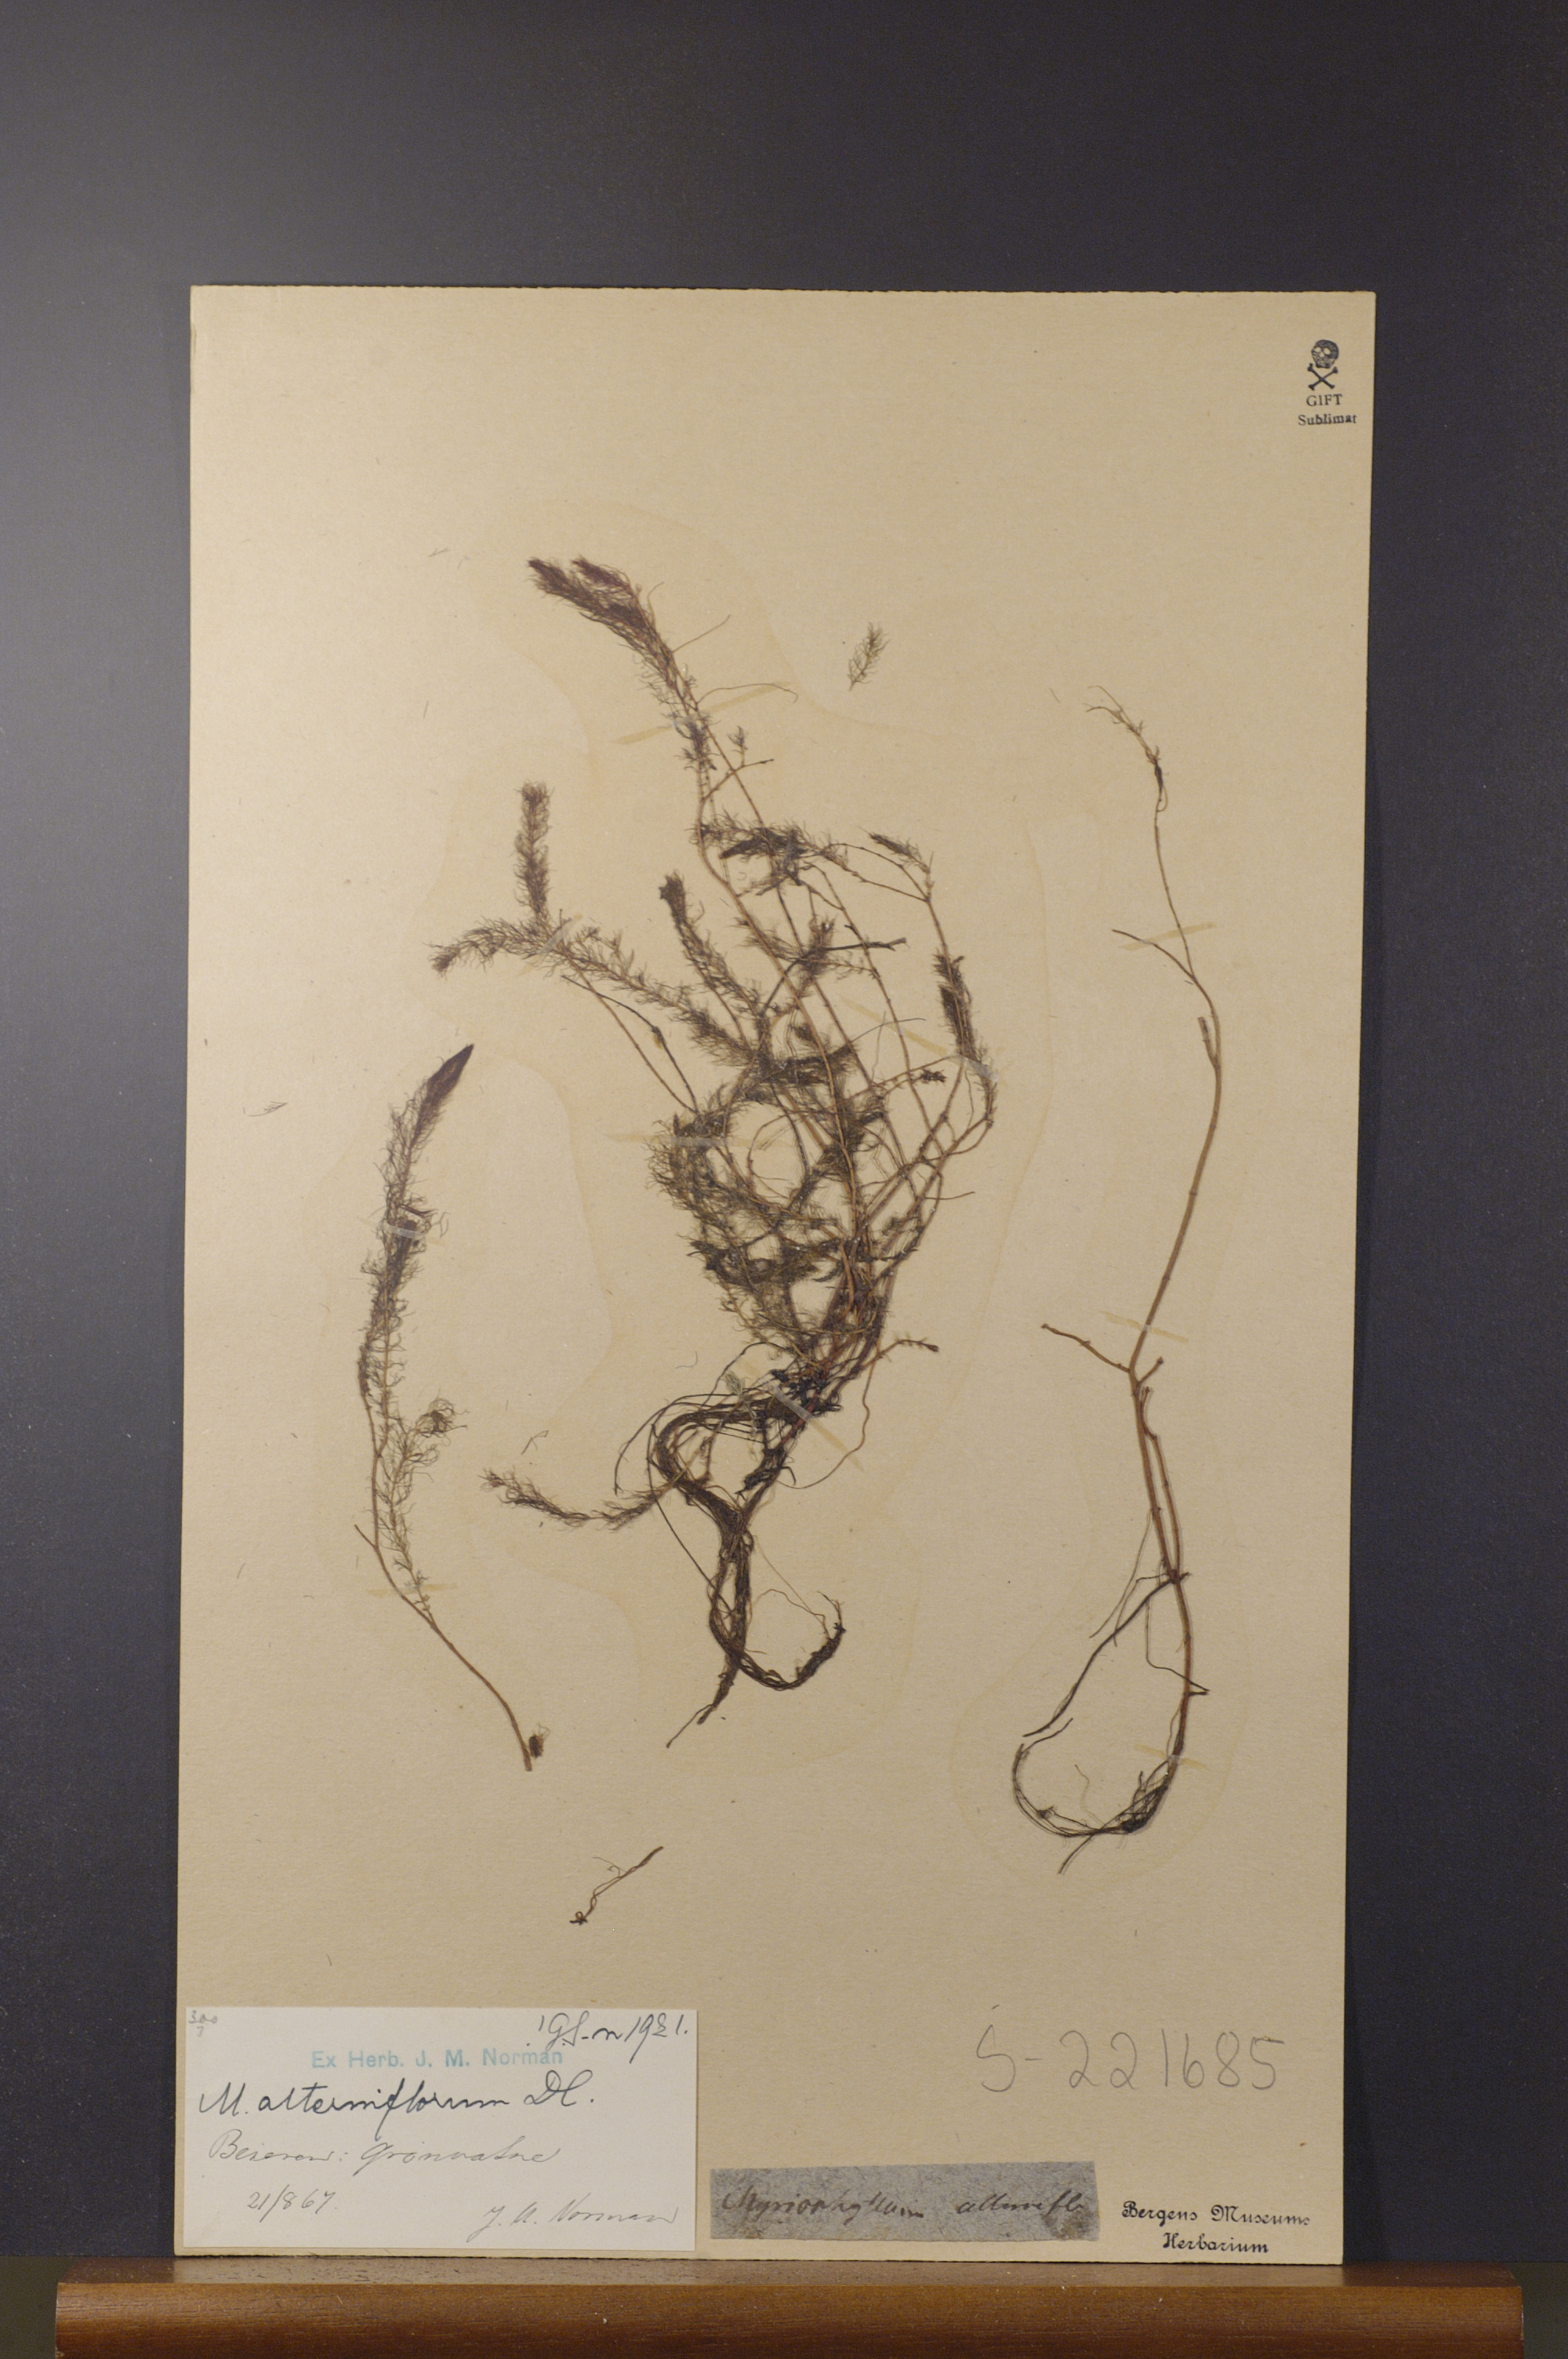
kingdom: Plantae
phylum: Tracheophyta
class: Magnoliopsida
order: Saxifragales
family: Haloragaceae
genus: Myriophyllum
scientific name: Myriophyllum alterniflorum
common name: Alternate water-milfoil
